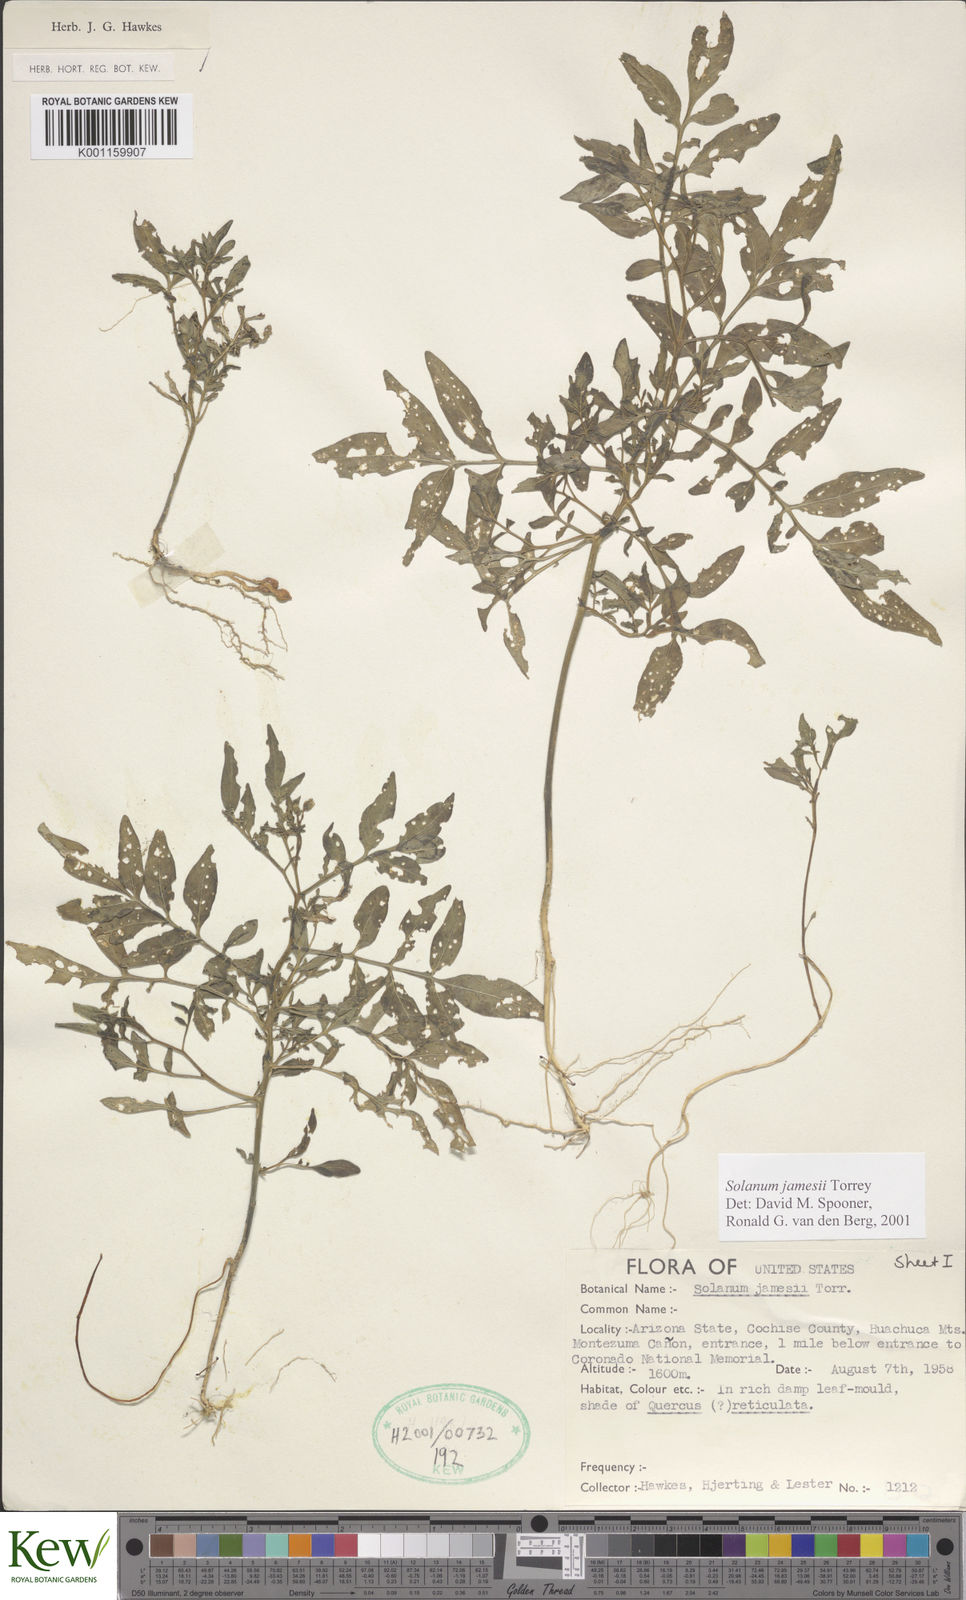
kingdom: Plantae
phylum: Tracheophyta
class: Magnoliopsida
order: Solanales
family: Solanaceae
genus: Solanum
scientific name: Solanum jamesii
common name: Wild potato
